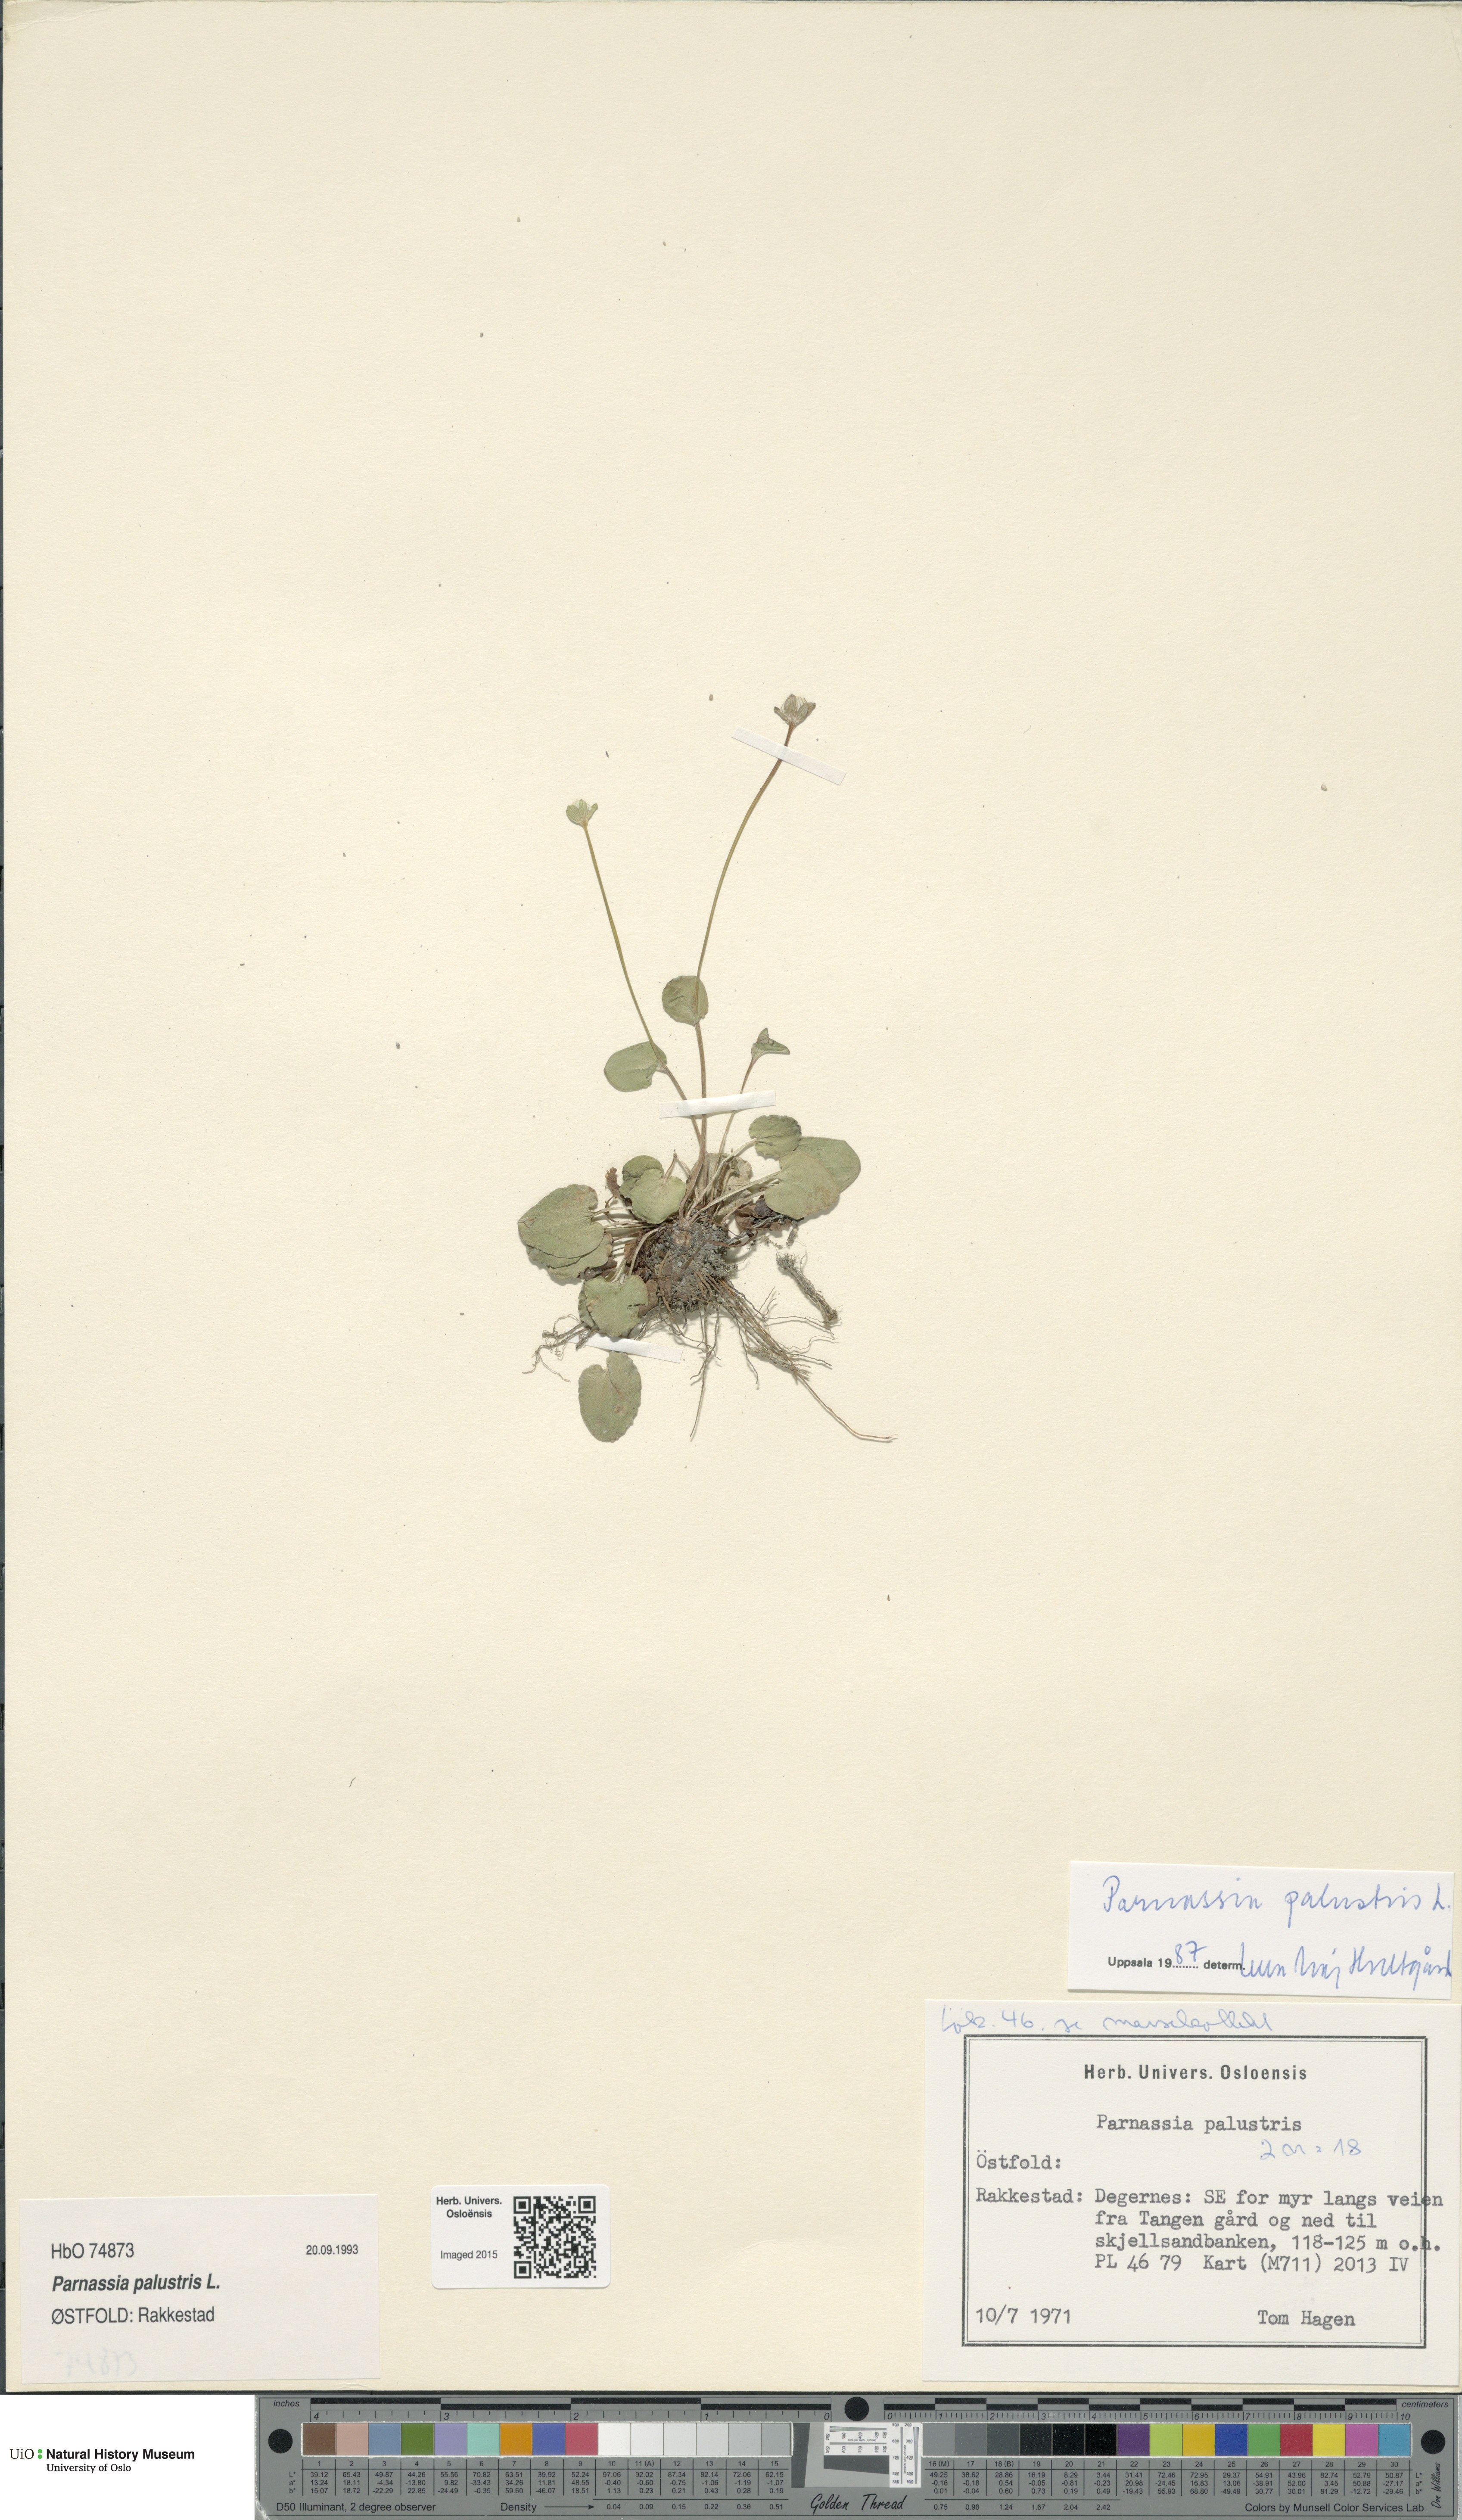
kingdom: Plantae
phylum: Tracheophyta
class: Magnoliopsida
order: Celastrales
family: Parnassiaceae
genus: Parnassia
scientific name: Parnassia palustris
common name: Grass-of-parnassus
